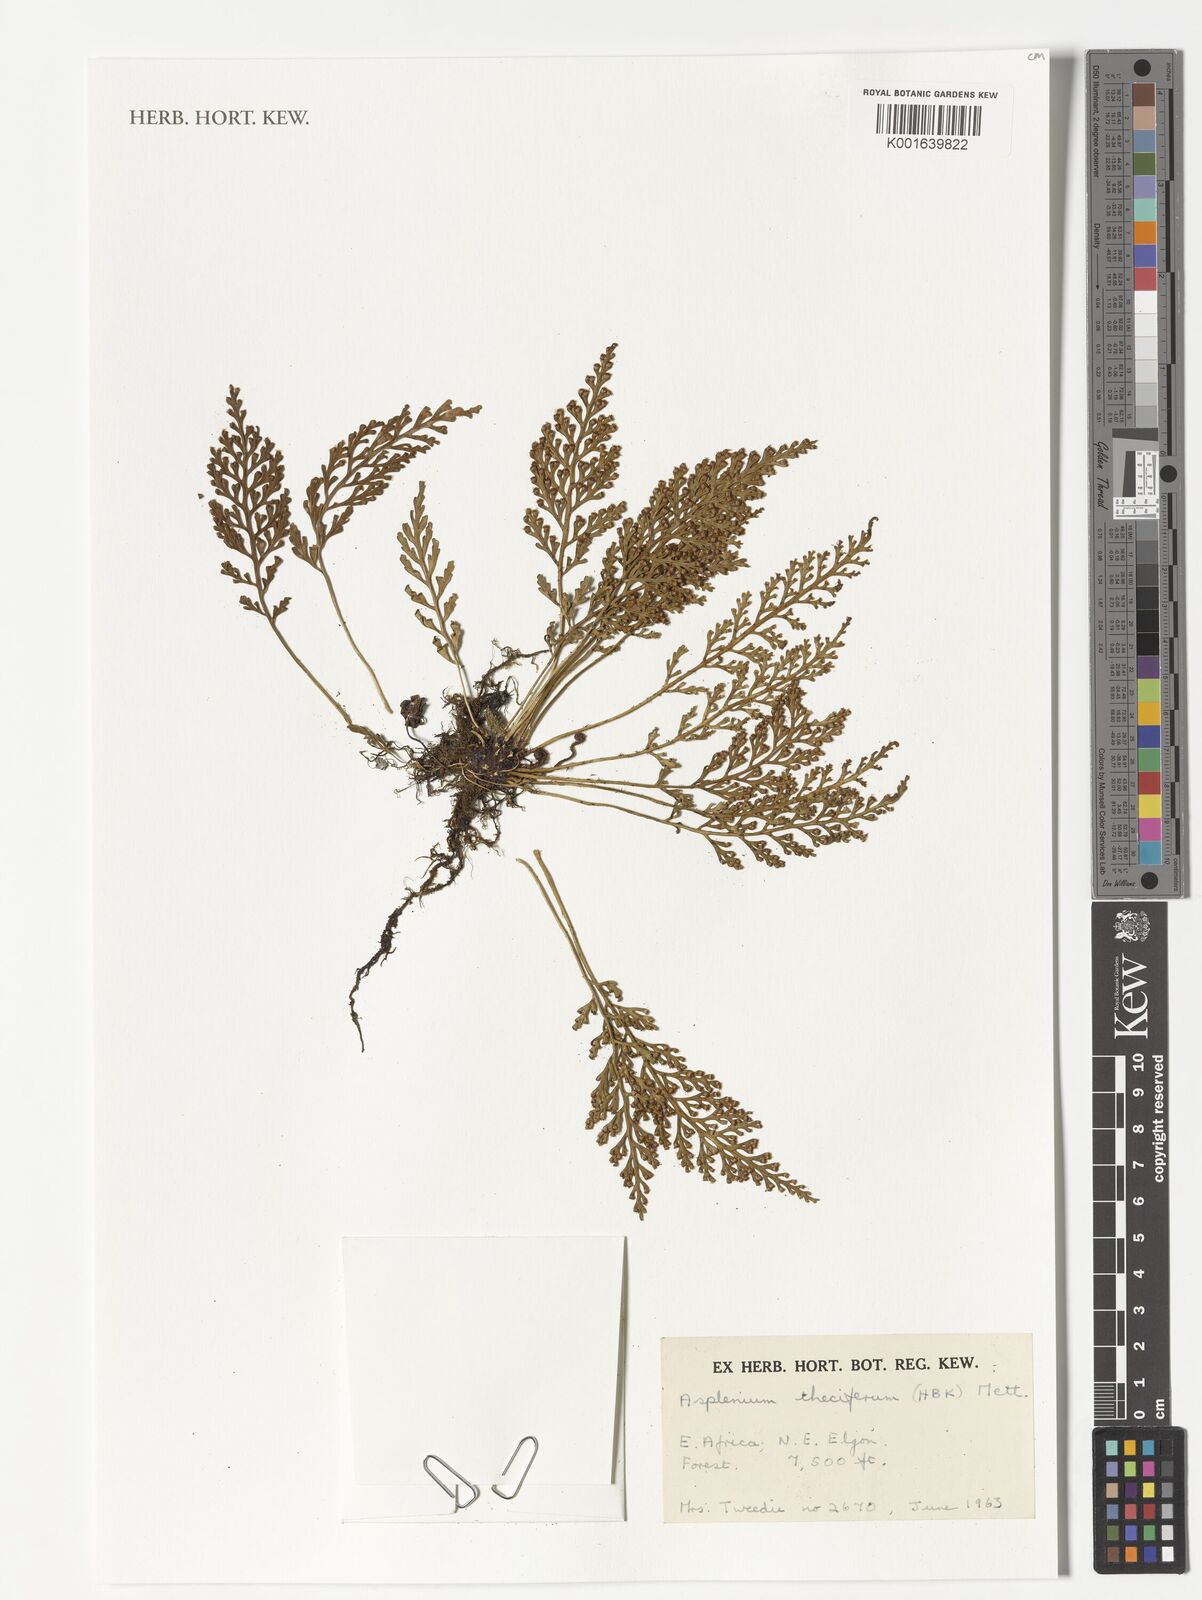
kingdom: Plantae
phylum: Tracheophyta
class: Polypodiopsida
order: Polypodiales
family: Aspleniaceae
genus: Asplenium
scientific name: Asplenium theciferum
